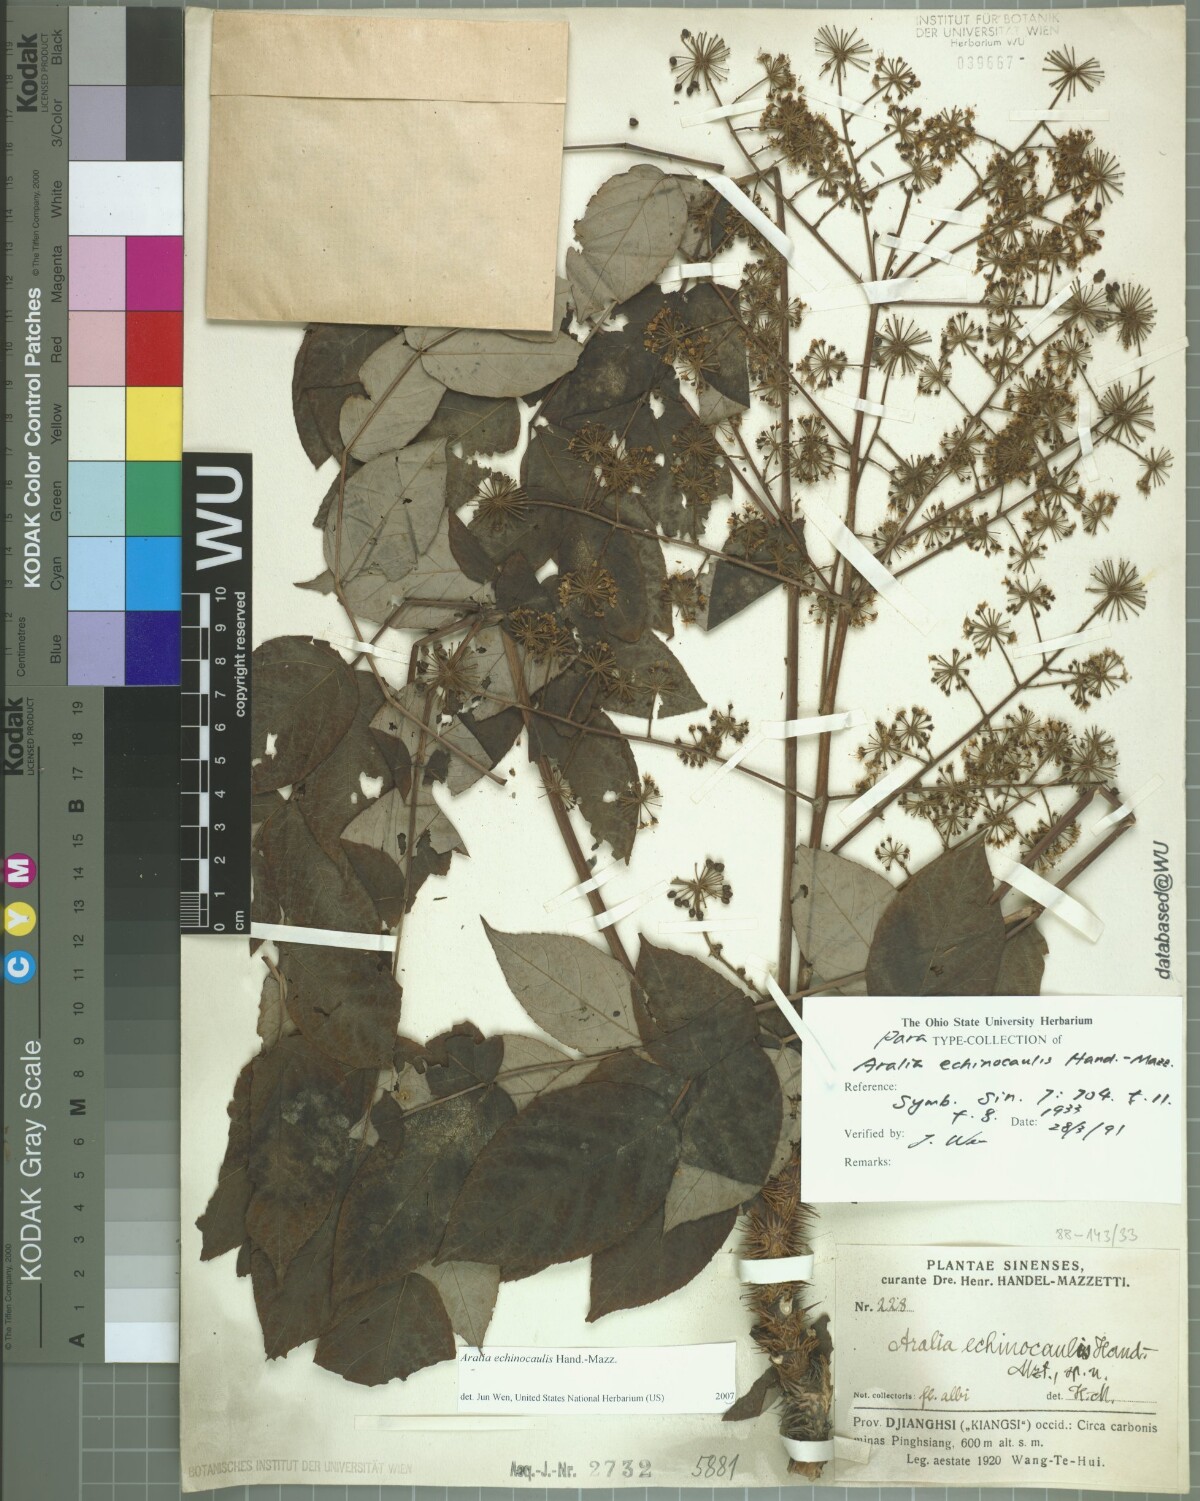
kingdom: Plantae
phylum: Tracheophyta
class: Magnoliopsida
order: Apiales
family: Araliaceae
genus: Aralia
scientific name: Aralia echinocaulis
